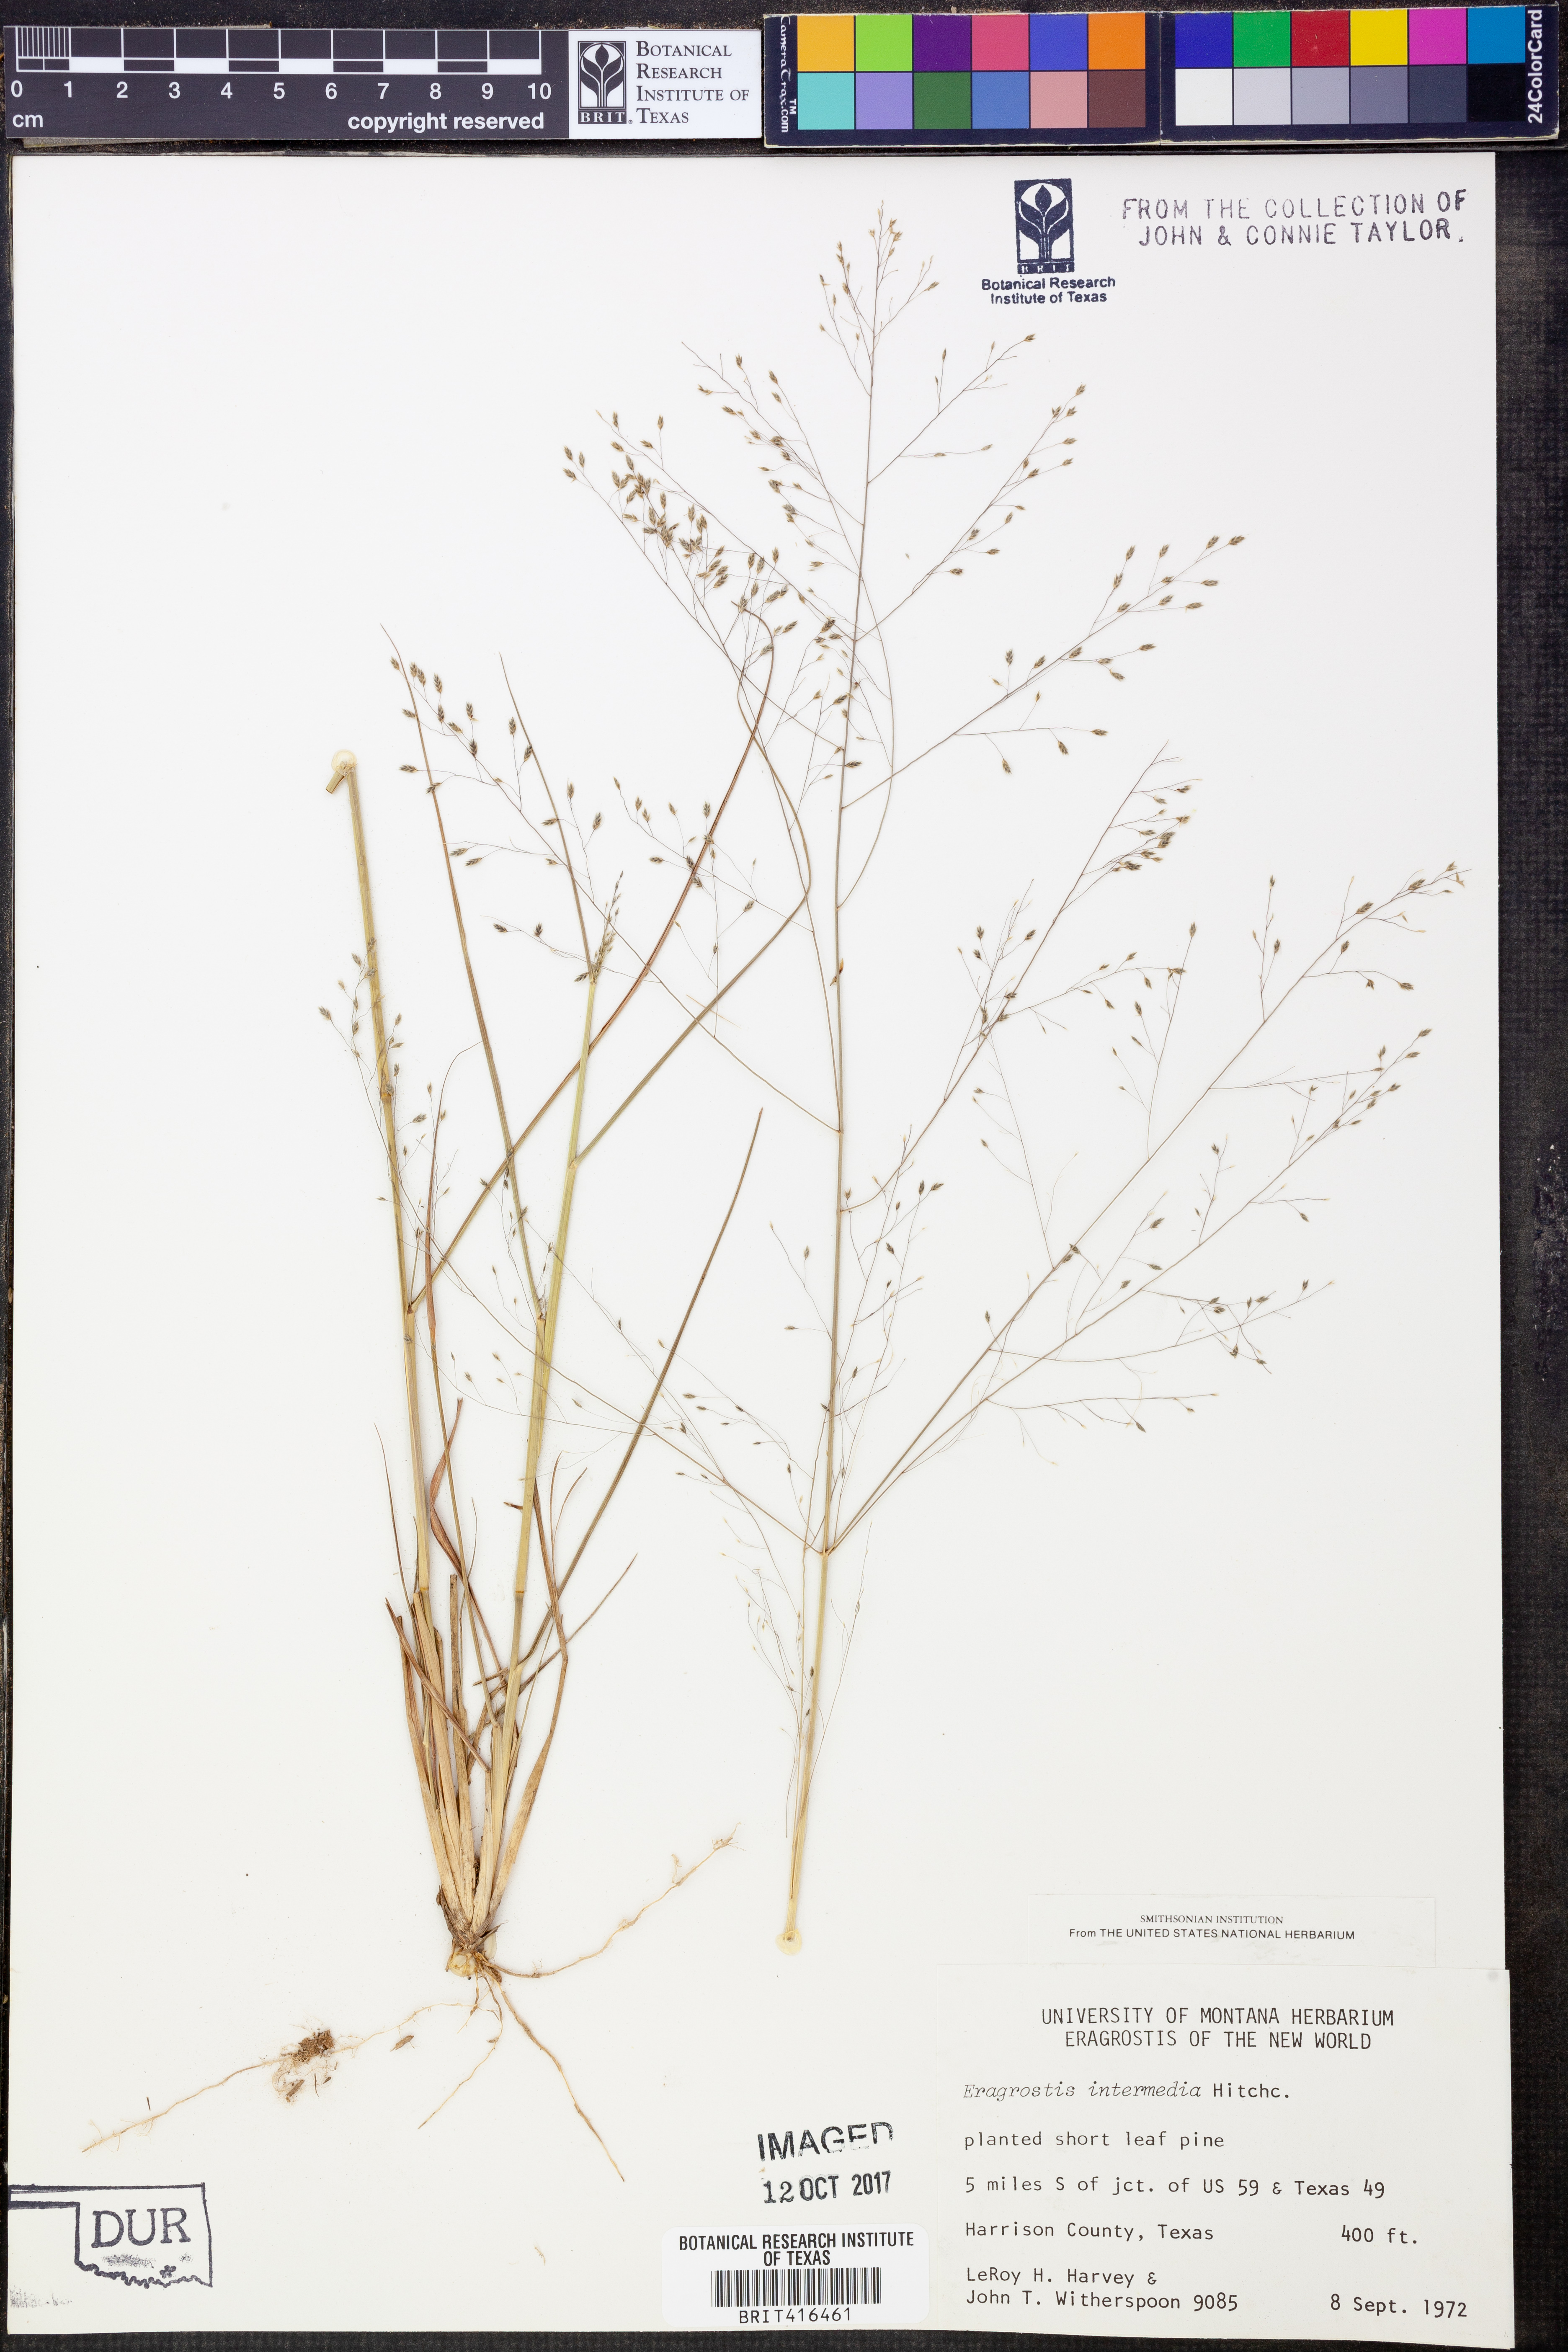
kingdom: Plantae
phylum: Tracheophyta
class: Liliopsida
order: Poales
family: Poaceae
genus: Eragrostis
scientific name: Eragrostis intermedia
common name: Plains love grass
